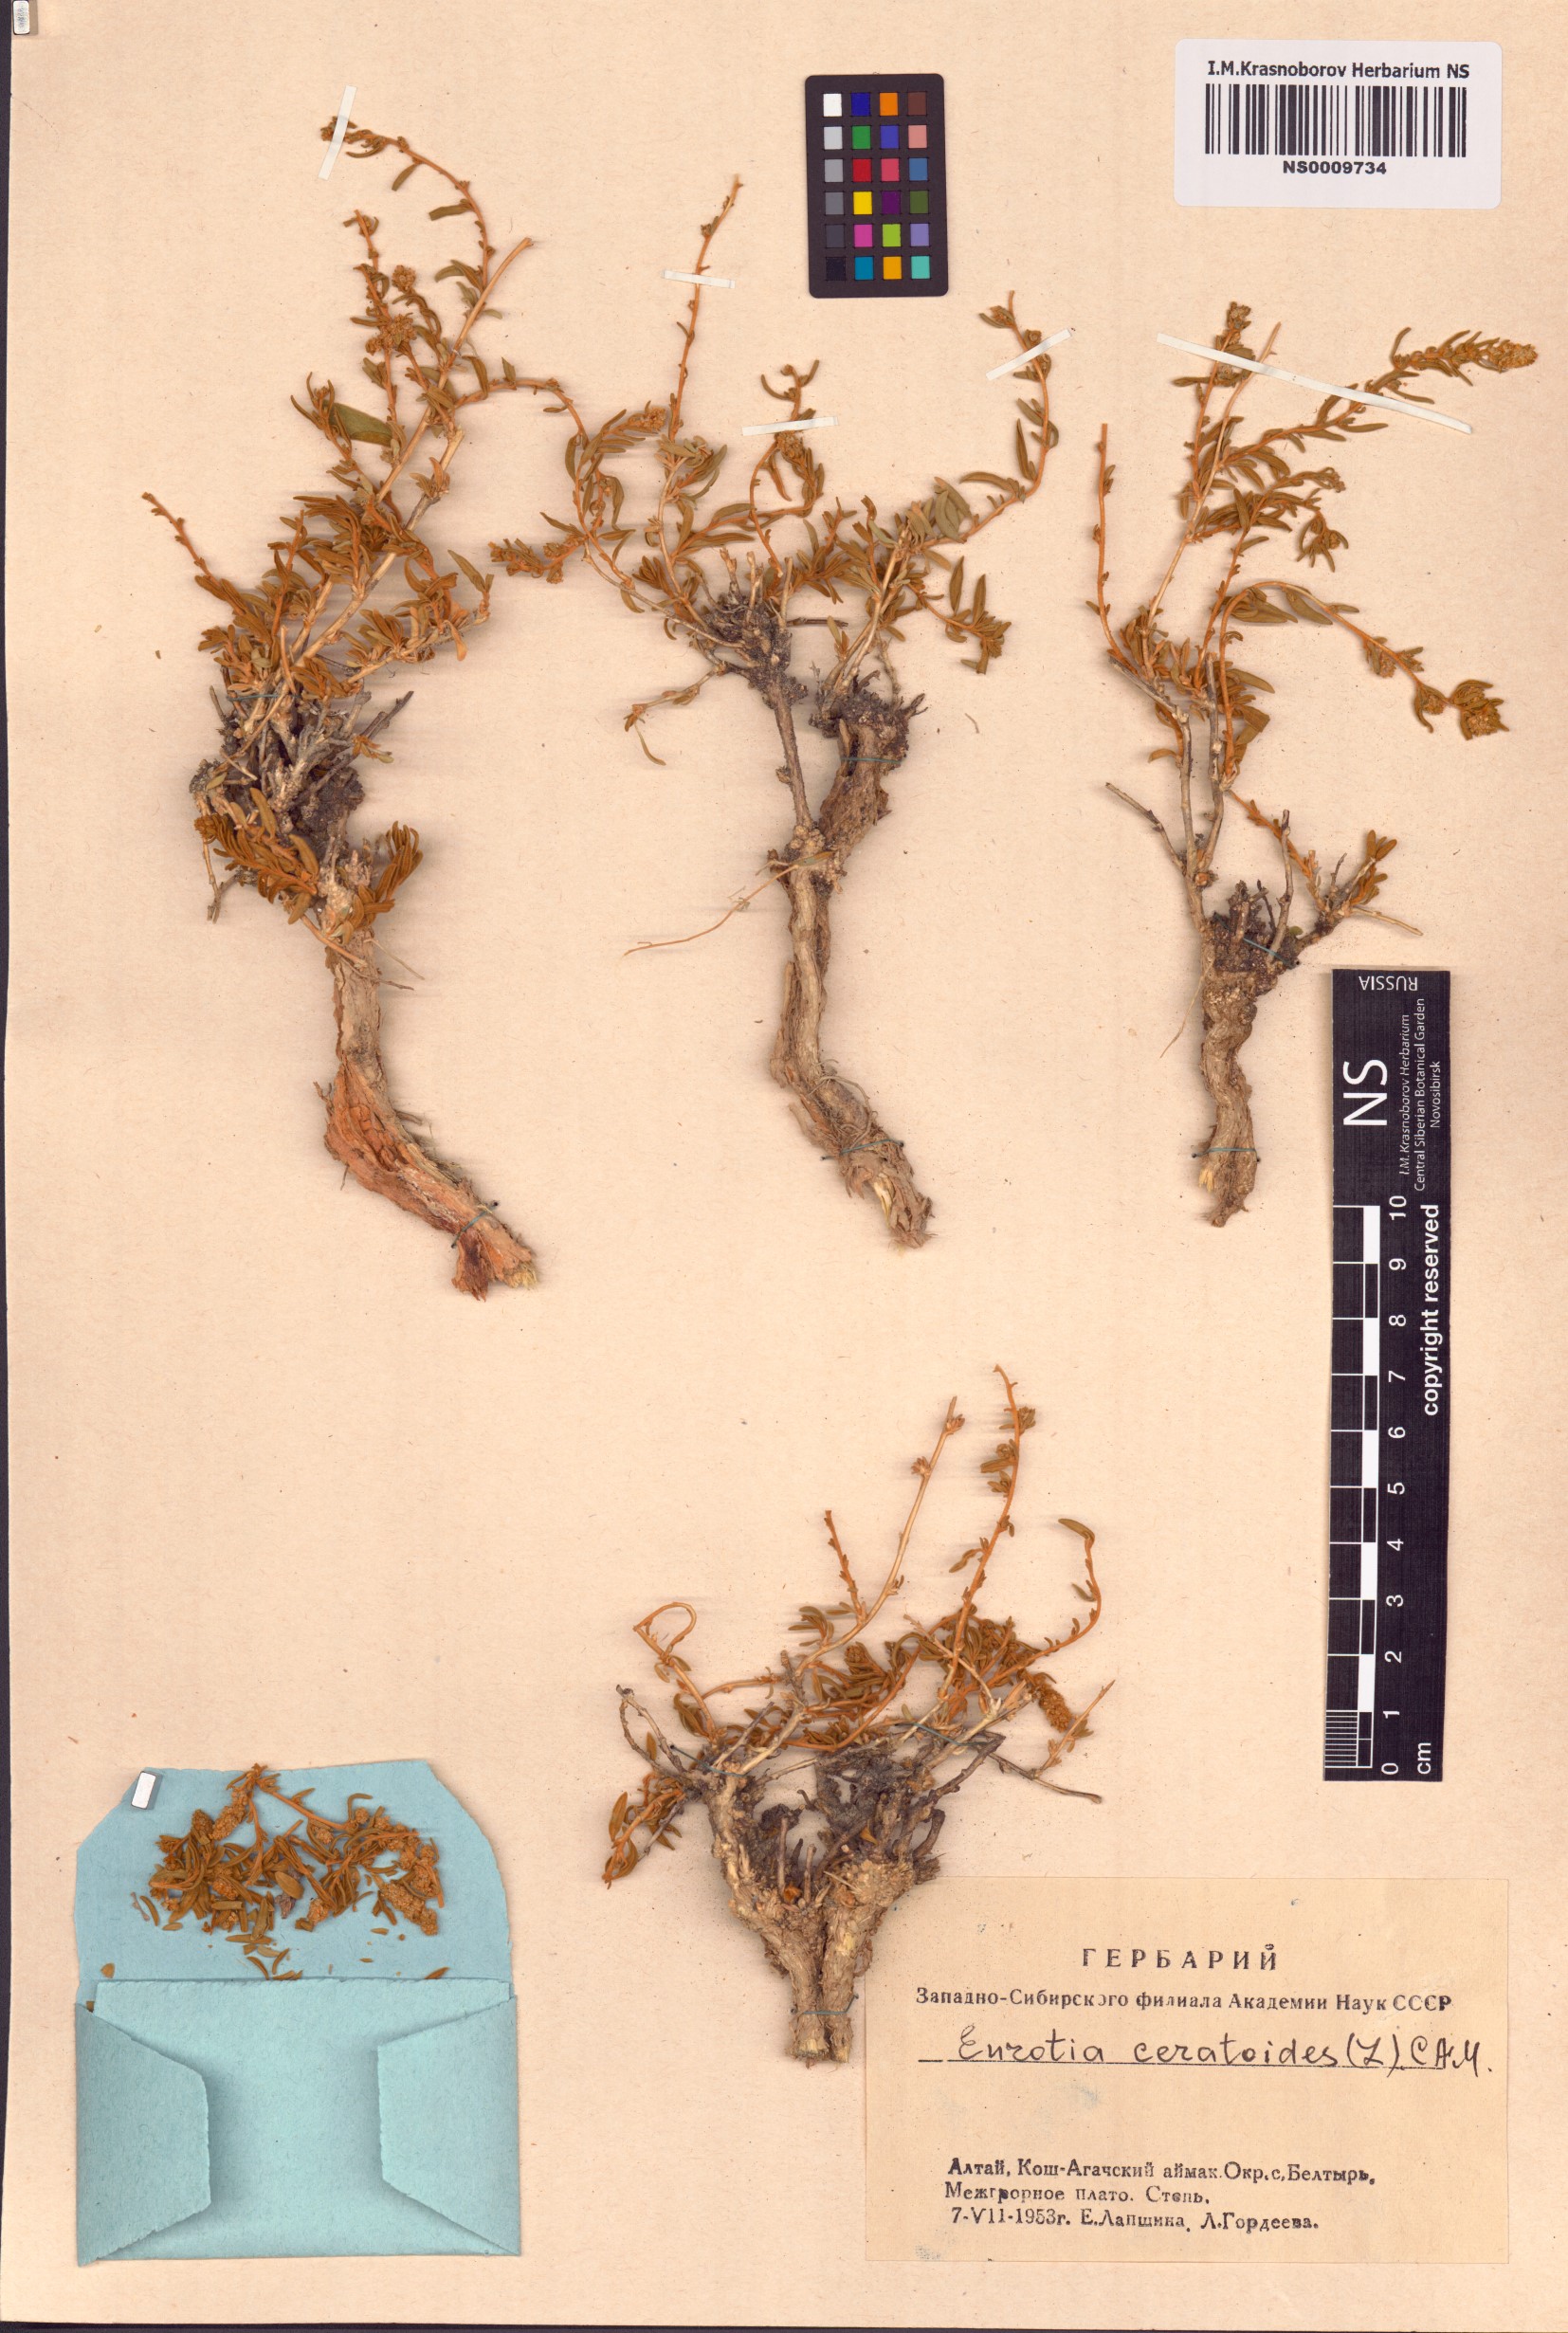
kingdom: Plantae
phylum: Tracheophyta
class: Magnoliopsida
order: Caryophyllales
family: Amaranthaceae
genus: Krascheninnikovia
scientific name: Krascheninnikovia ceratoides
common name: Pamirian winterfat
